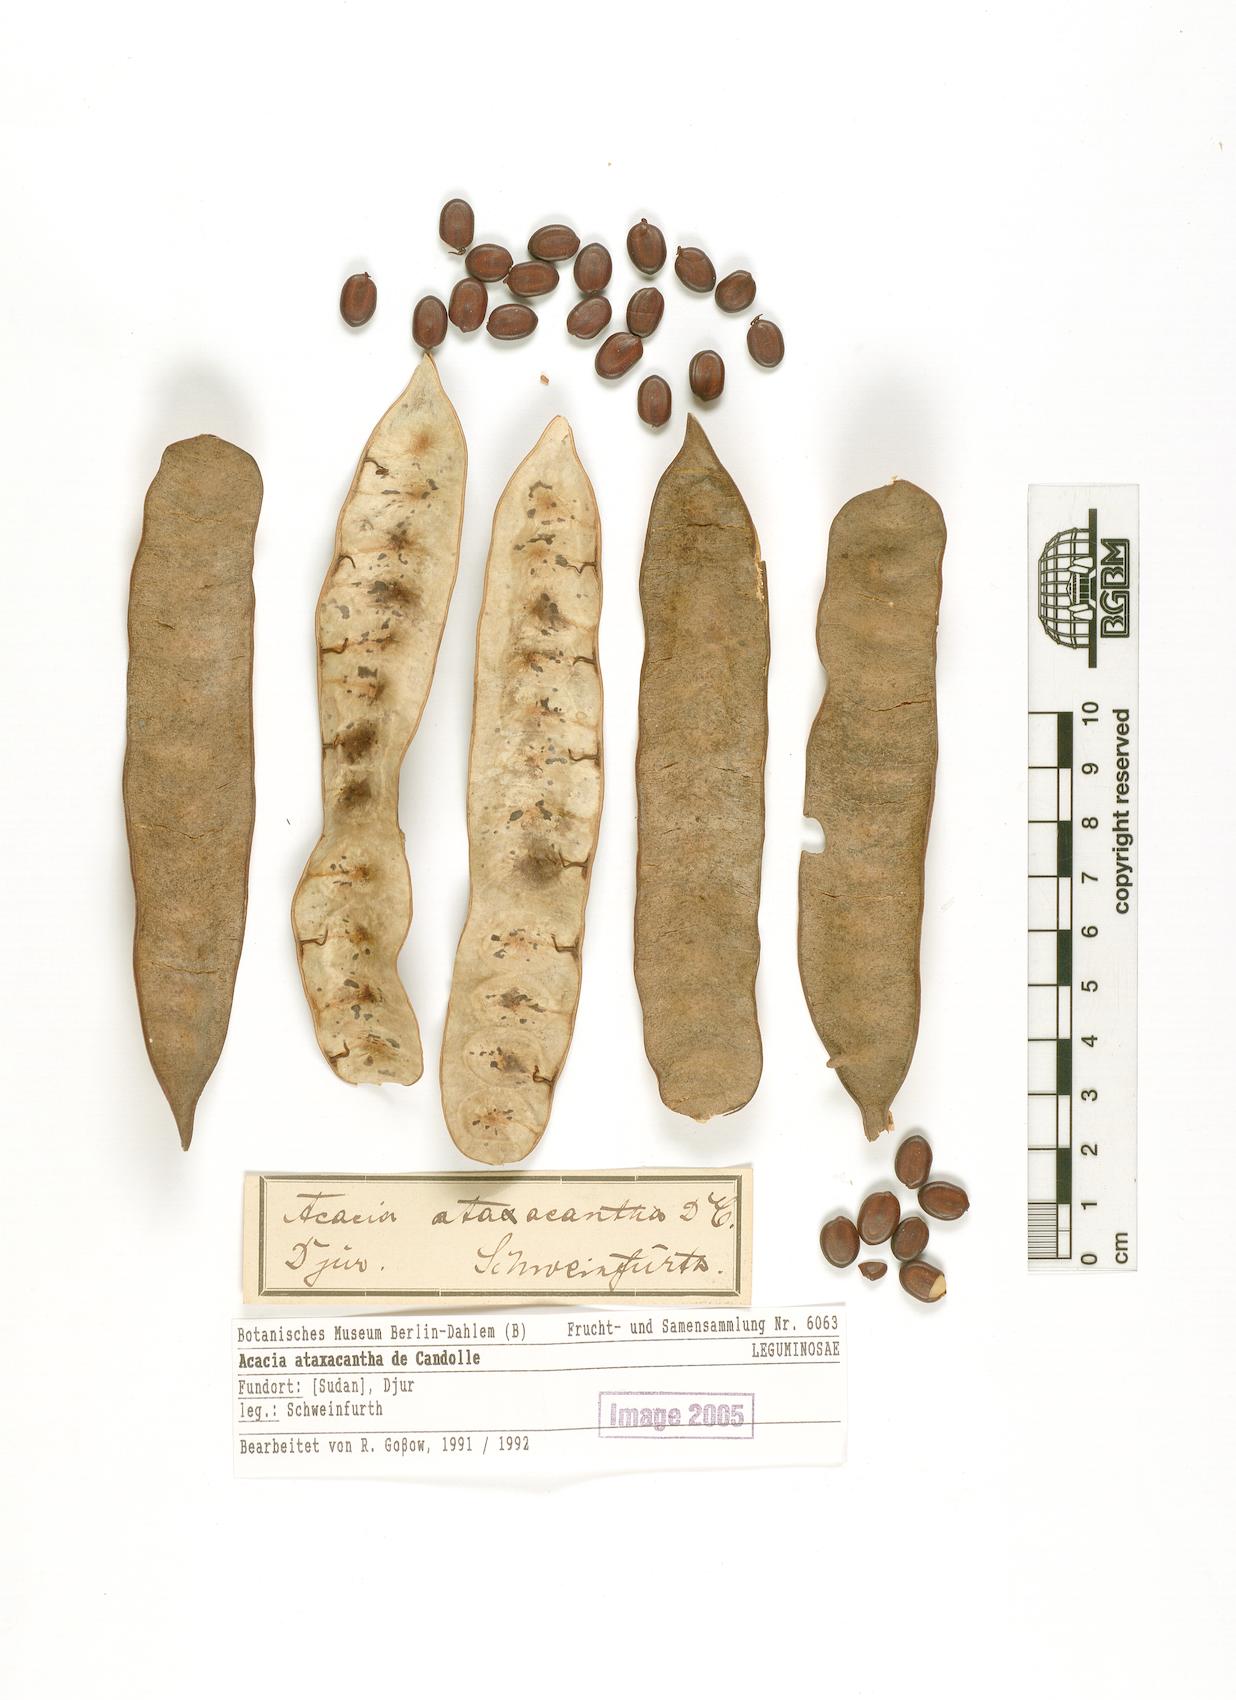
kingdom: Plantae
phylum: Tracheophyta
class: Magnoliopsida
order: Fabales
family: Fabaceae
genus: Senegalia
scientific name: Senegalia ataxacantha
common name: Flame acacia
